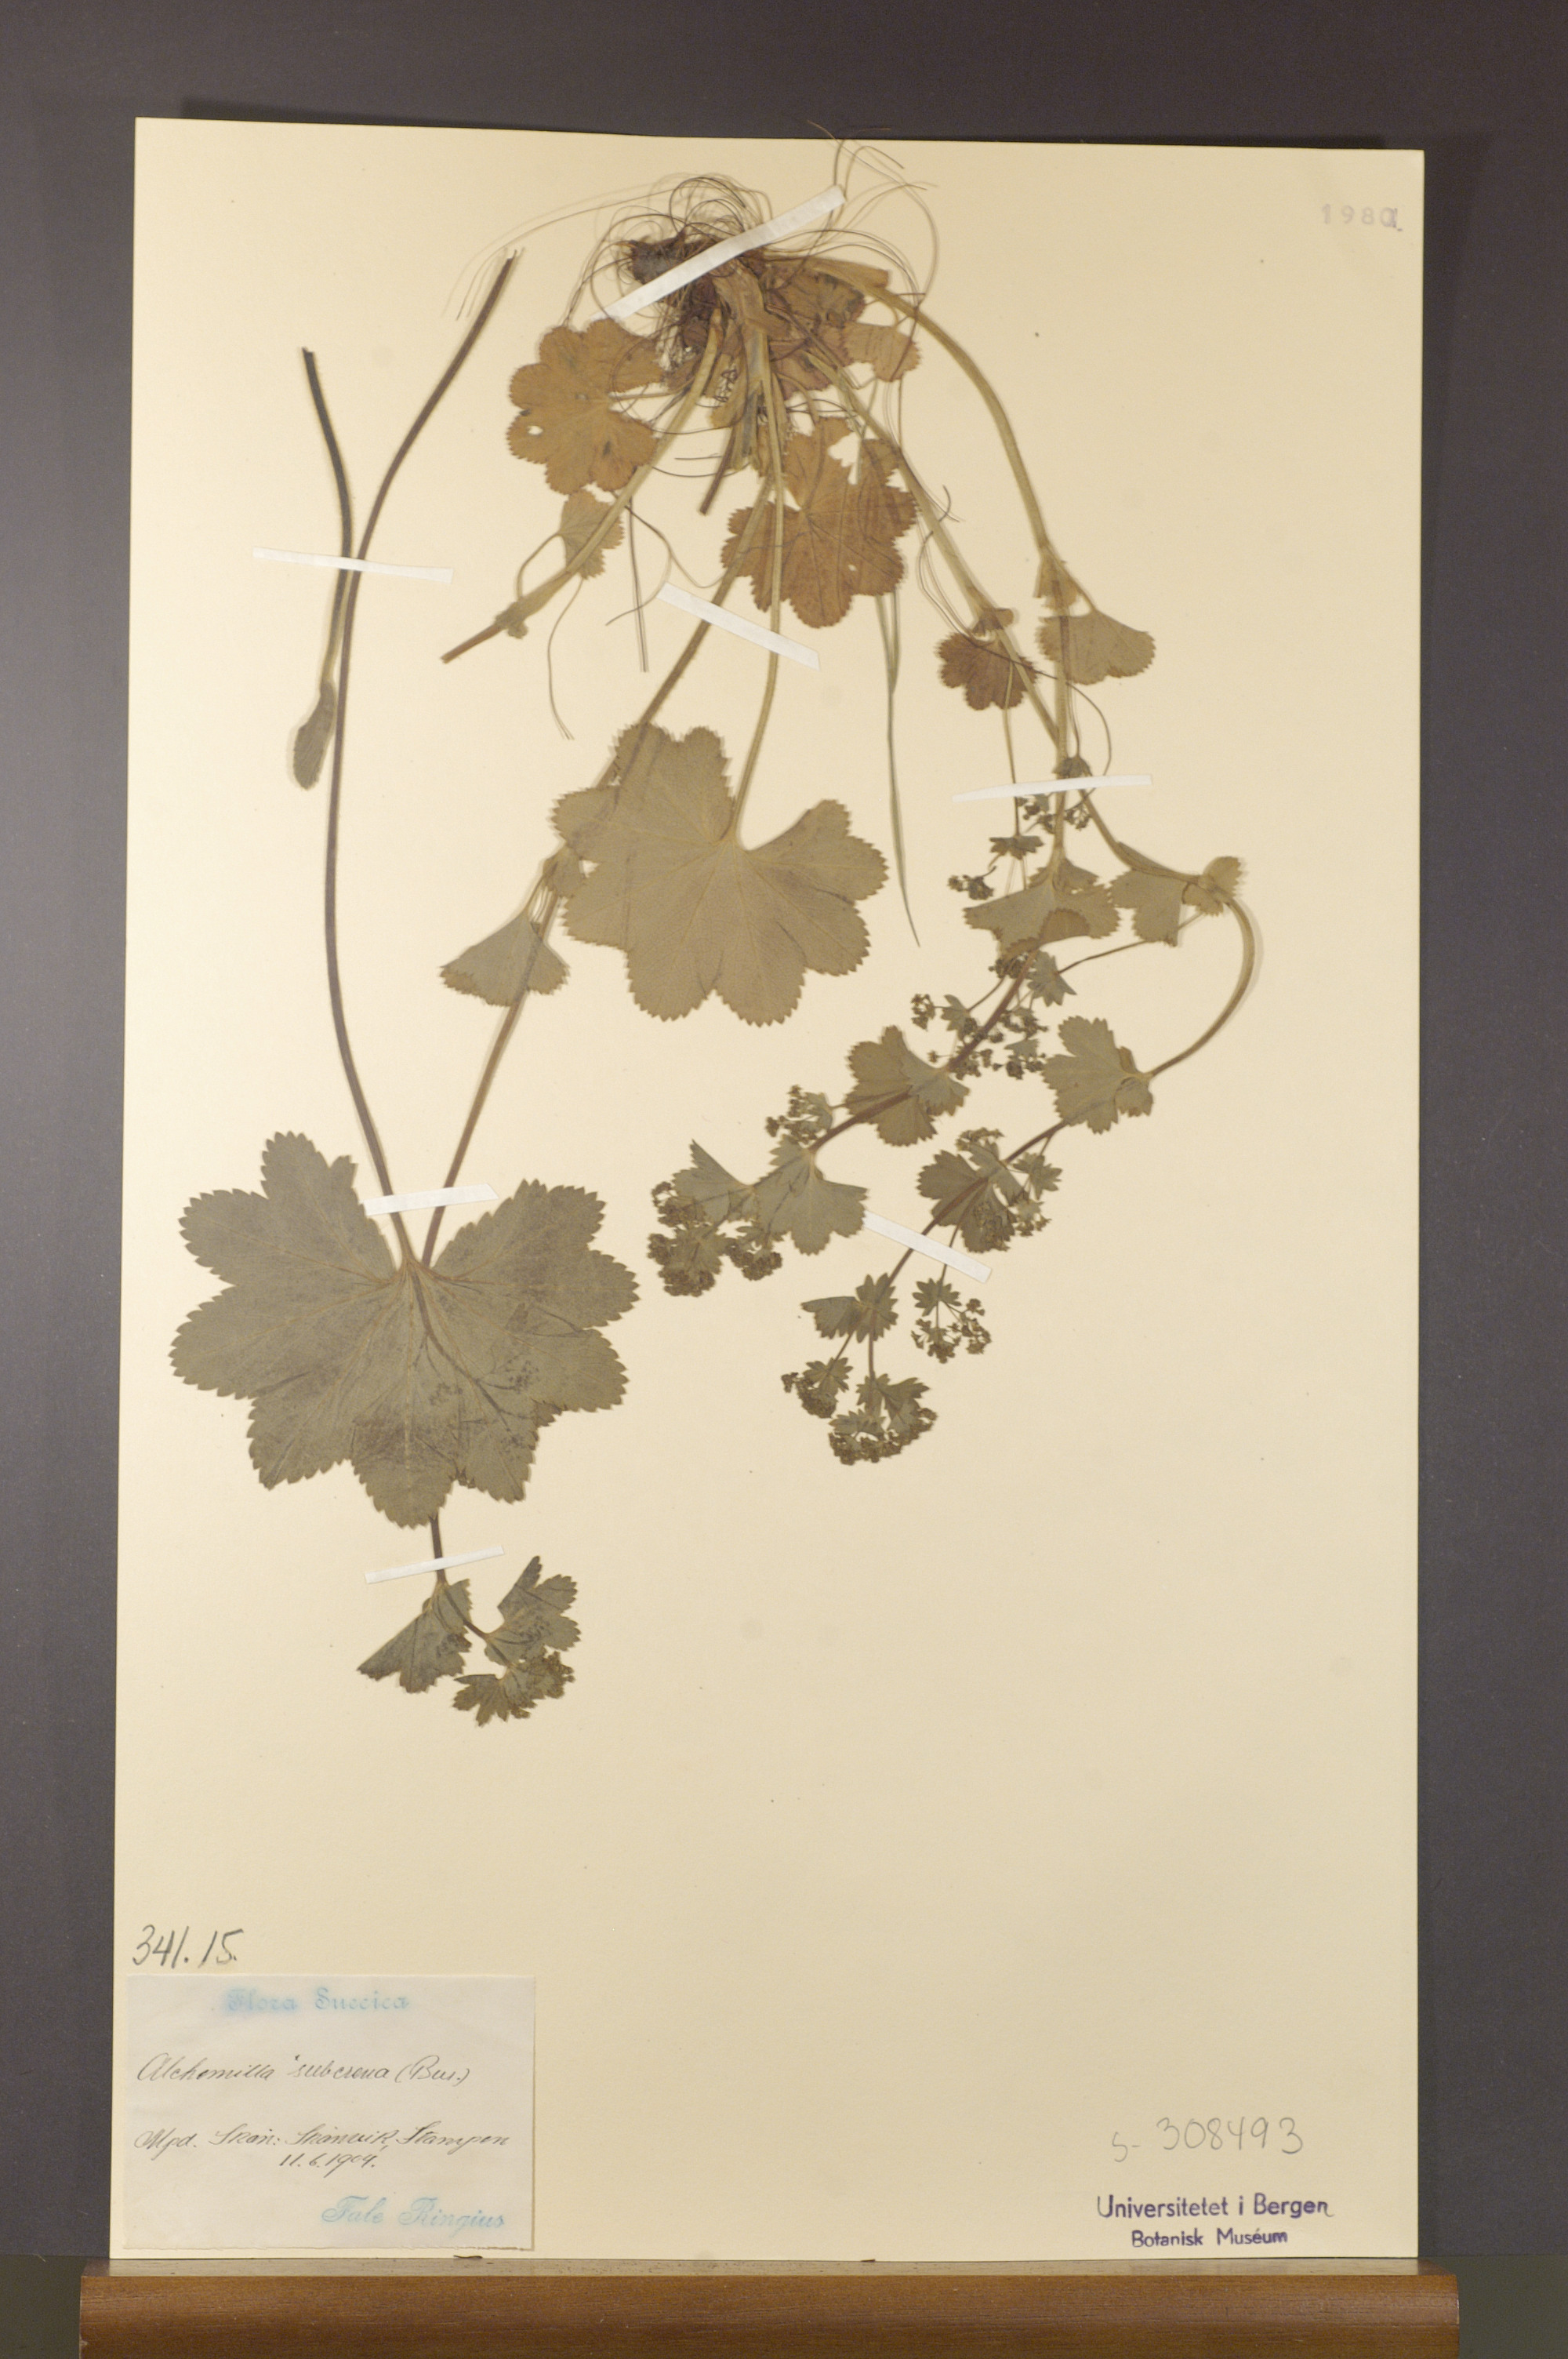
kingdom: Plantae
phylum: Tracheophyta
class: Magnoliopsida
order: Rosales
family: Rosaceae
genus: Alchemilla
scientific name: Alchemilla subcrenata
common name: Broadtooth lady's mantle
